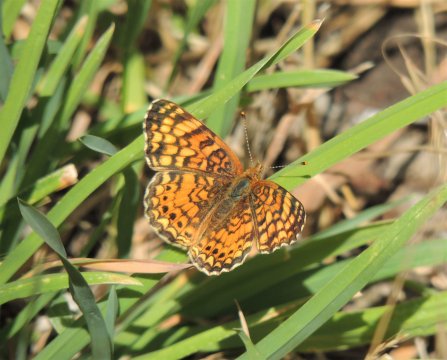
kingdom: Animalia
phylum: Arthropoda
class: Insecta
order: Lepidoptera
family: Nymphalidae
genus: Eresia
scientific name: Eresia aveyrona
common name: Mylitta Crescent
